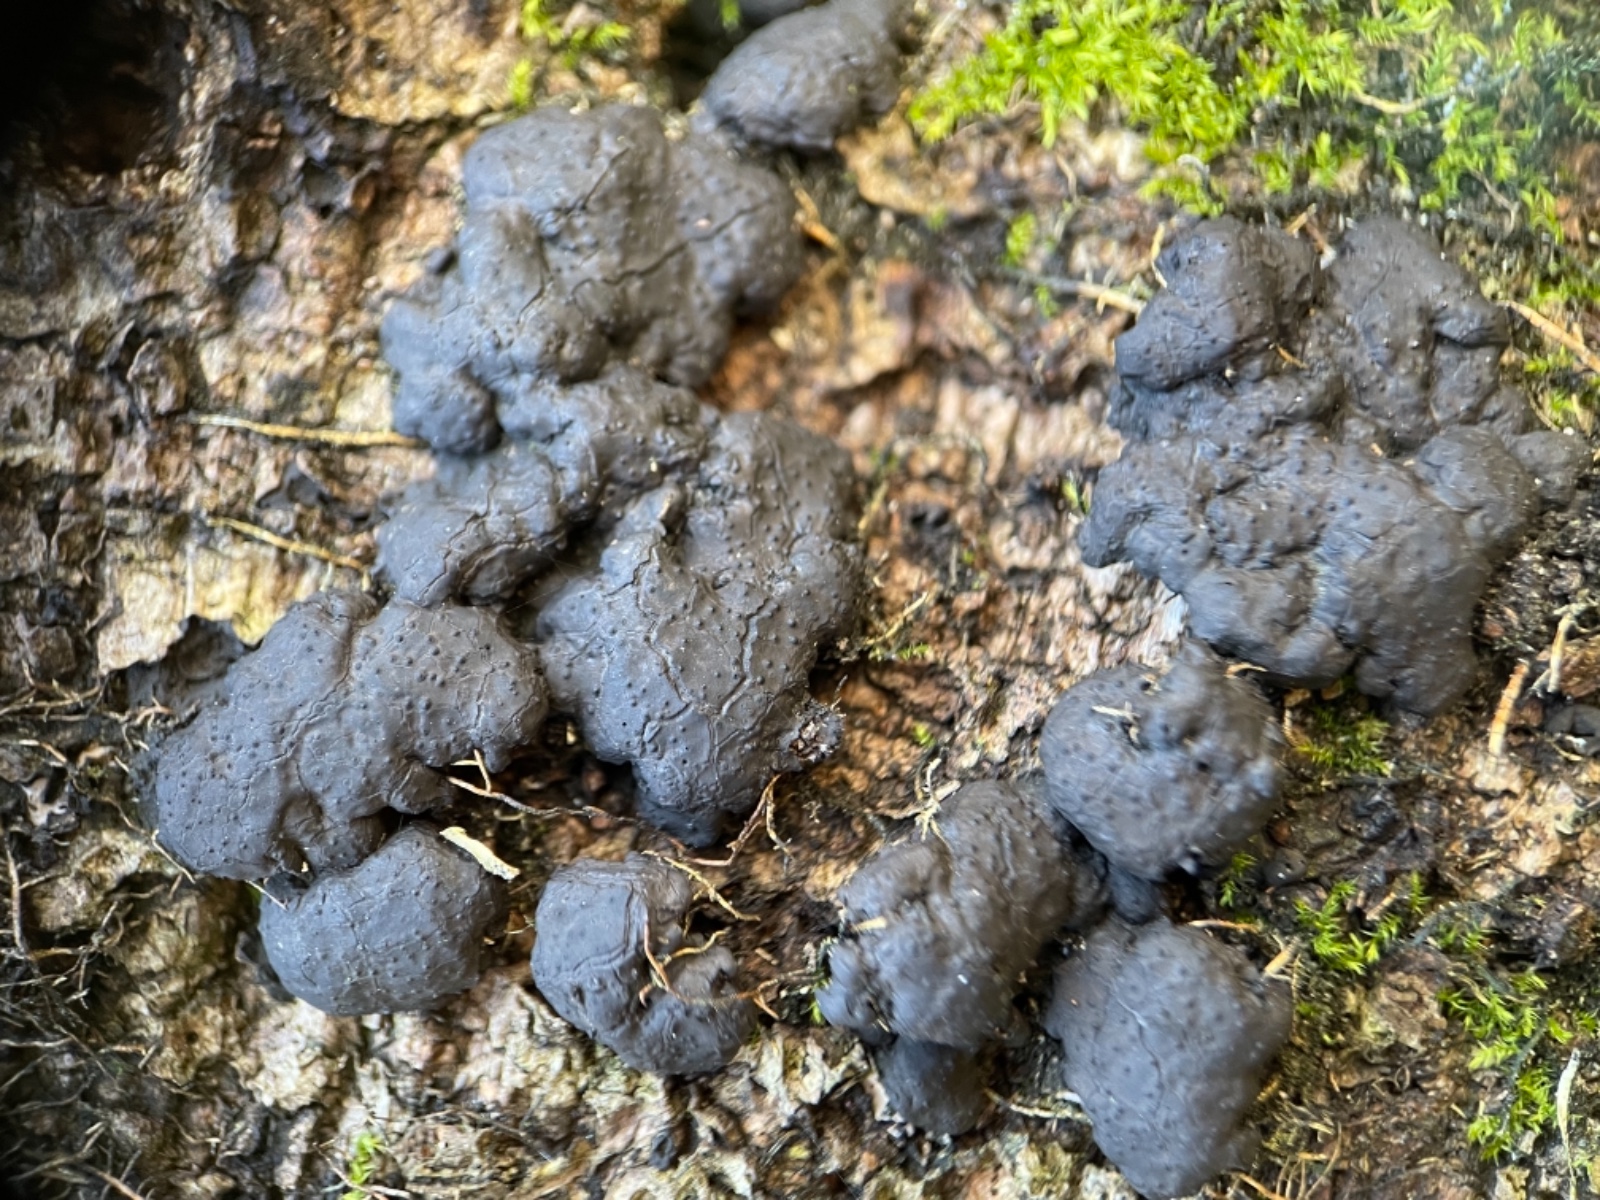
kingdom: Fungi
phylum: Ascomycota
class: Sordariomycetes
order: Xylariales
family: Xylariaceae
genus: Kretzschmaria
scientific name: Kretzschmaria deusta
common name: stor kulsvamp
